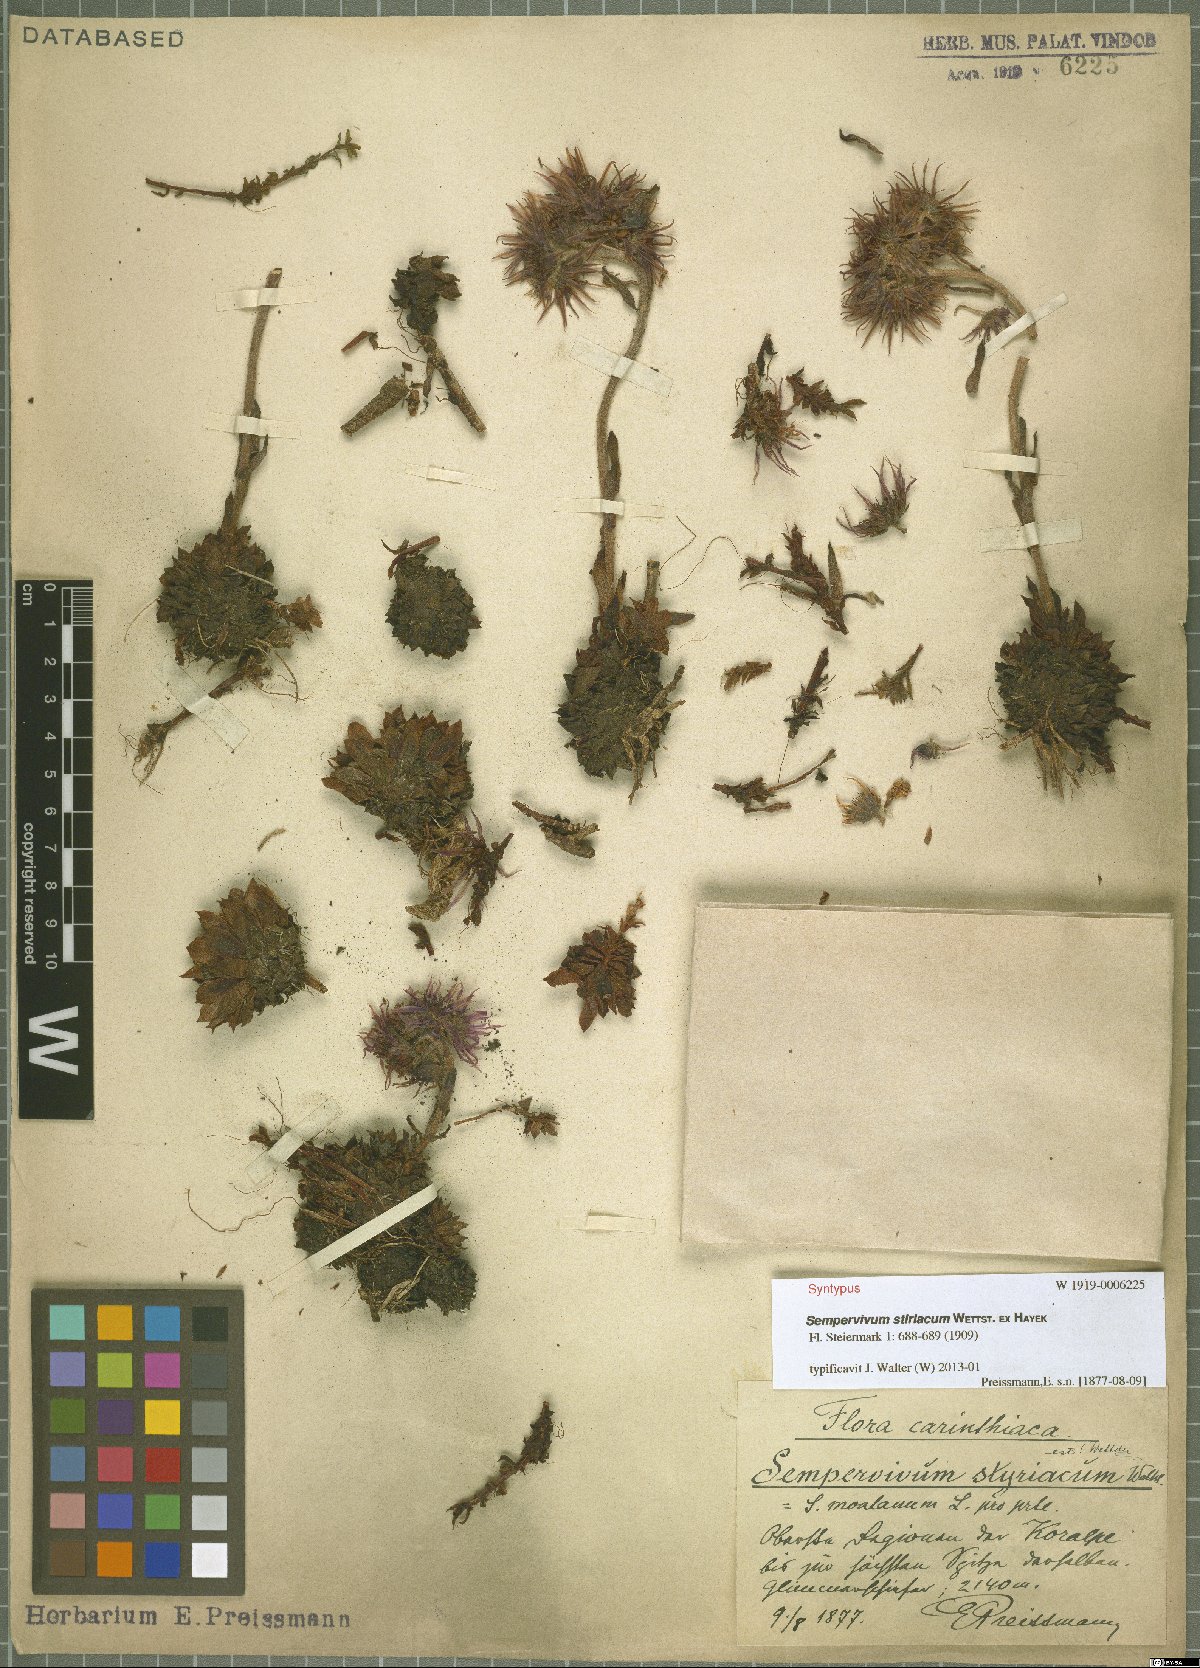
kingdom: Plantae
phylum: Tracheophyta
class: Magnoliopsida
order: Saxifragales
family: Crassulaceae
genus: Sempervivum
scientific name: Sempervivum montanum
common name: Mountain house-leek
